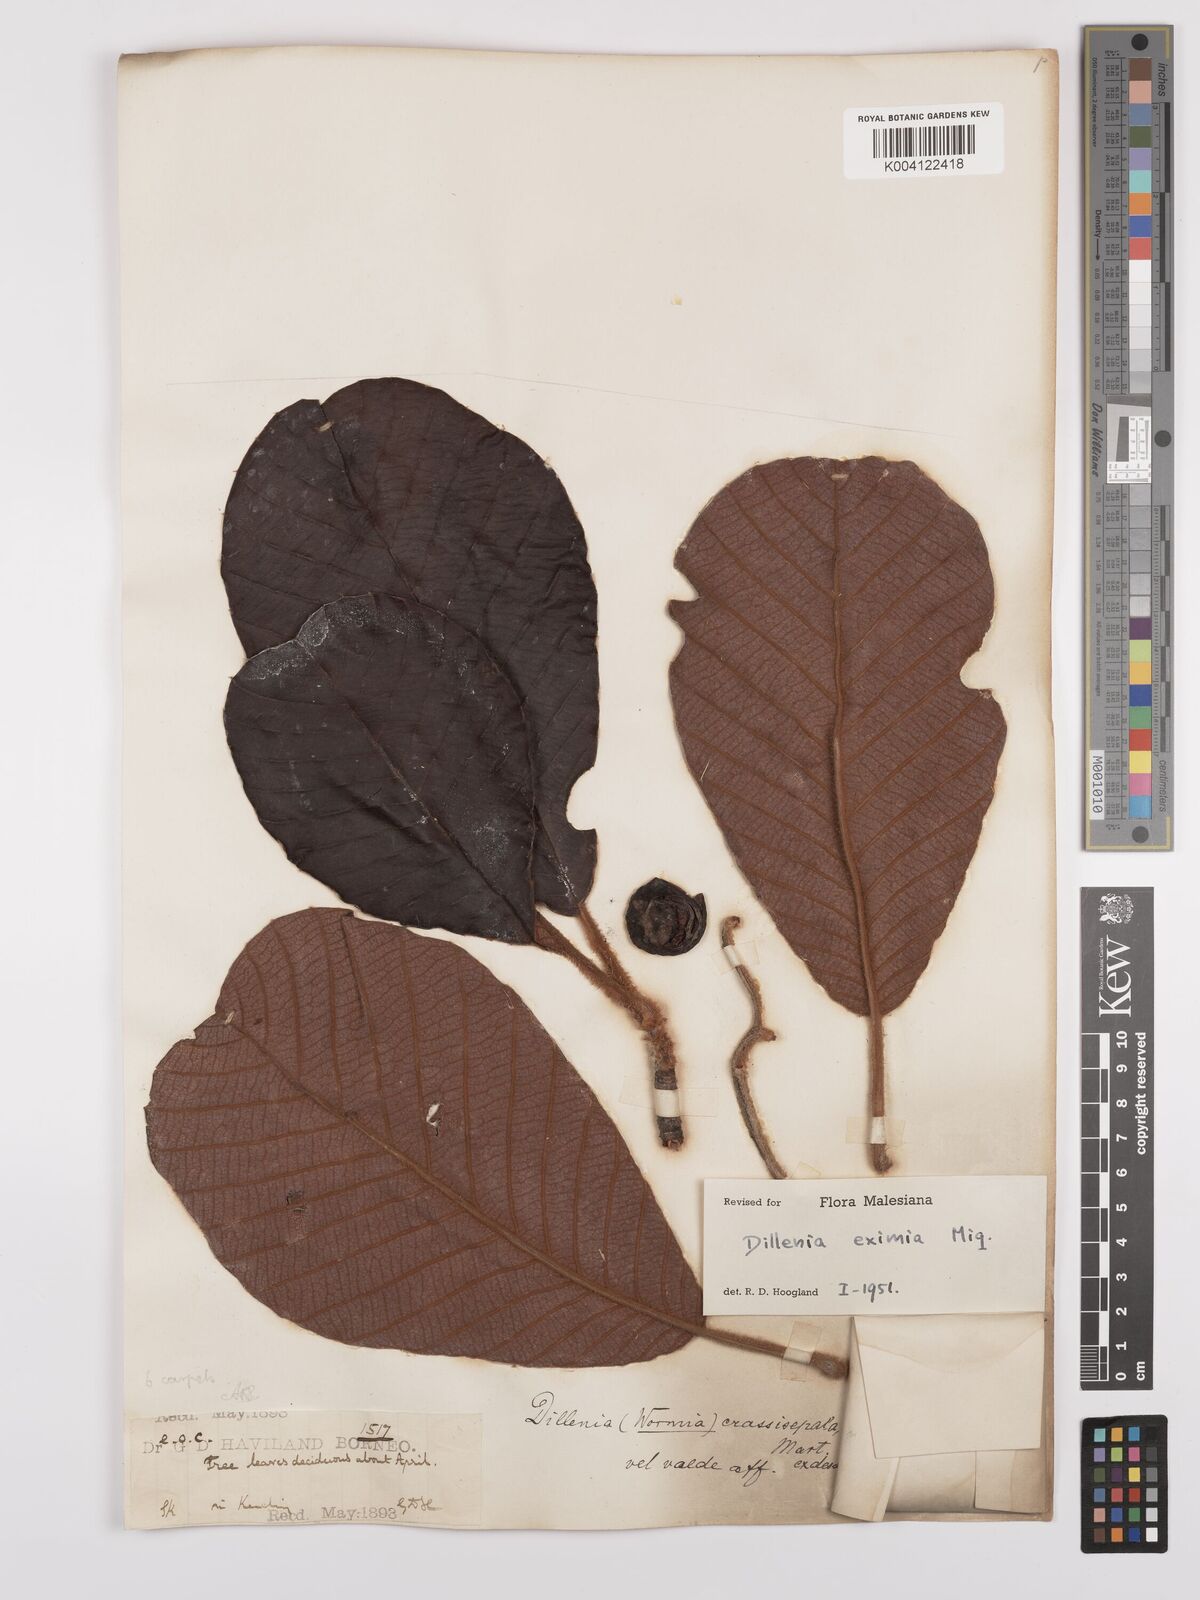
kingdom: Plantae
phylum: Tracheophyta
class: Magnoliopsida
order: Dilleniales
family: Dilleniaceae
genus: Dillenia
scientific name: Dillenia grandifolia
